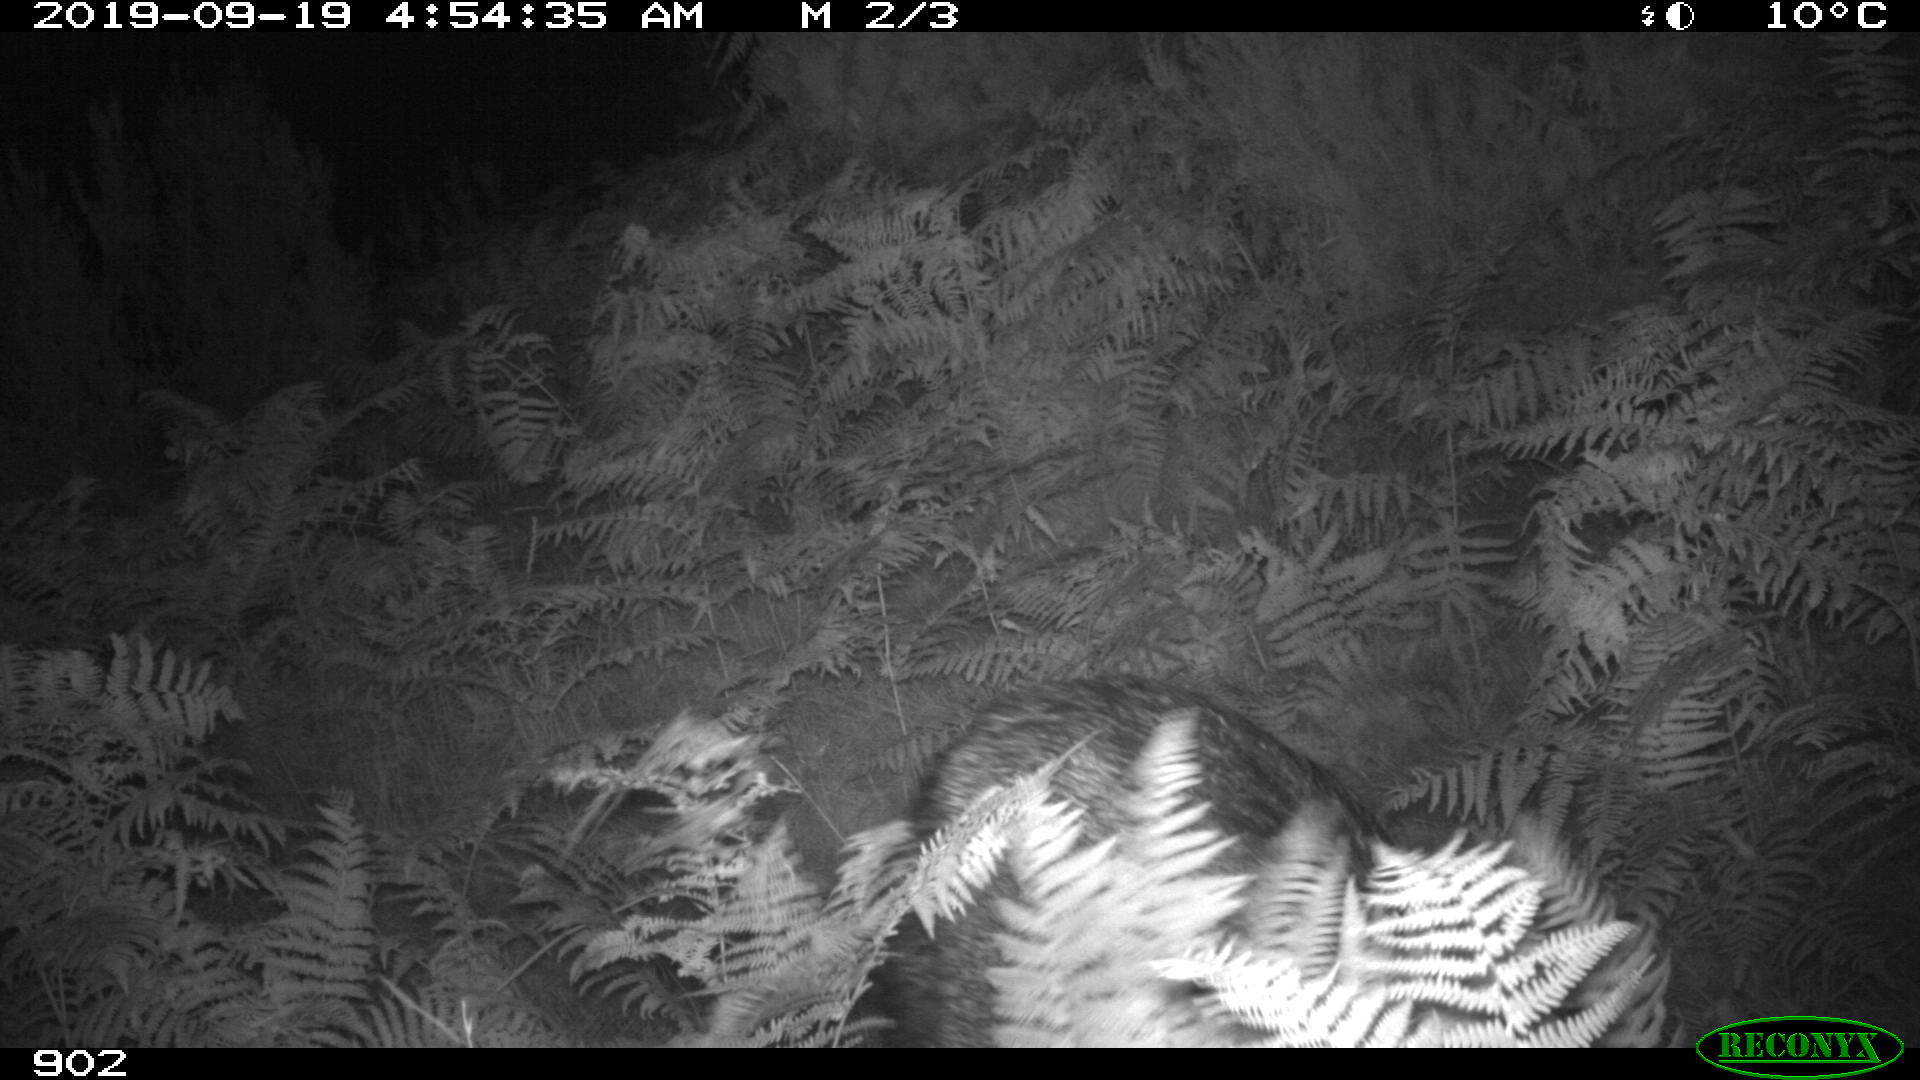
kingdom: Animalia
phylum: Chordata
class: Mammalia
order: Artiodactyla
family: Suidae
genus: Sus
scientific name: Sus scrofa
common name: Wild boar
